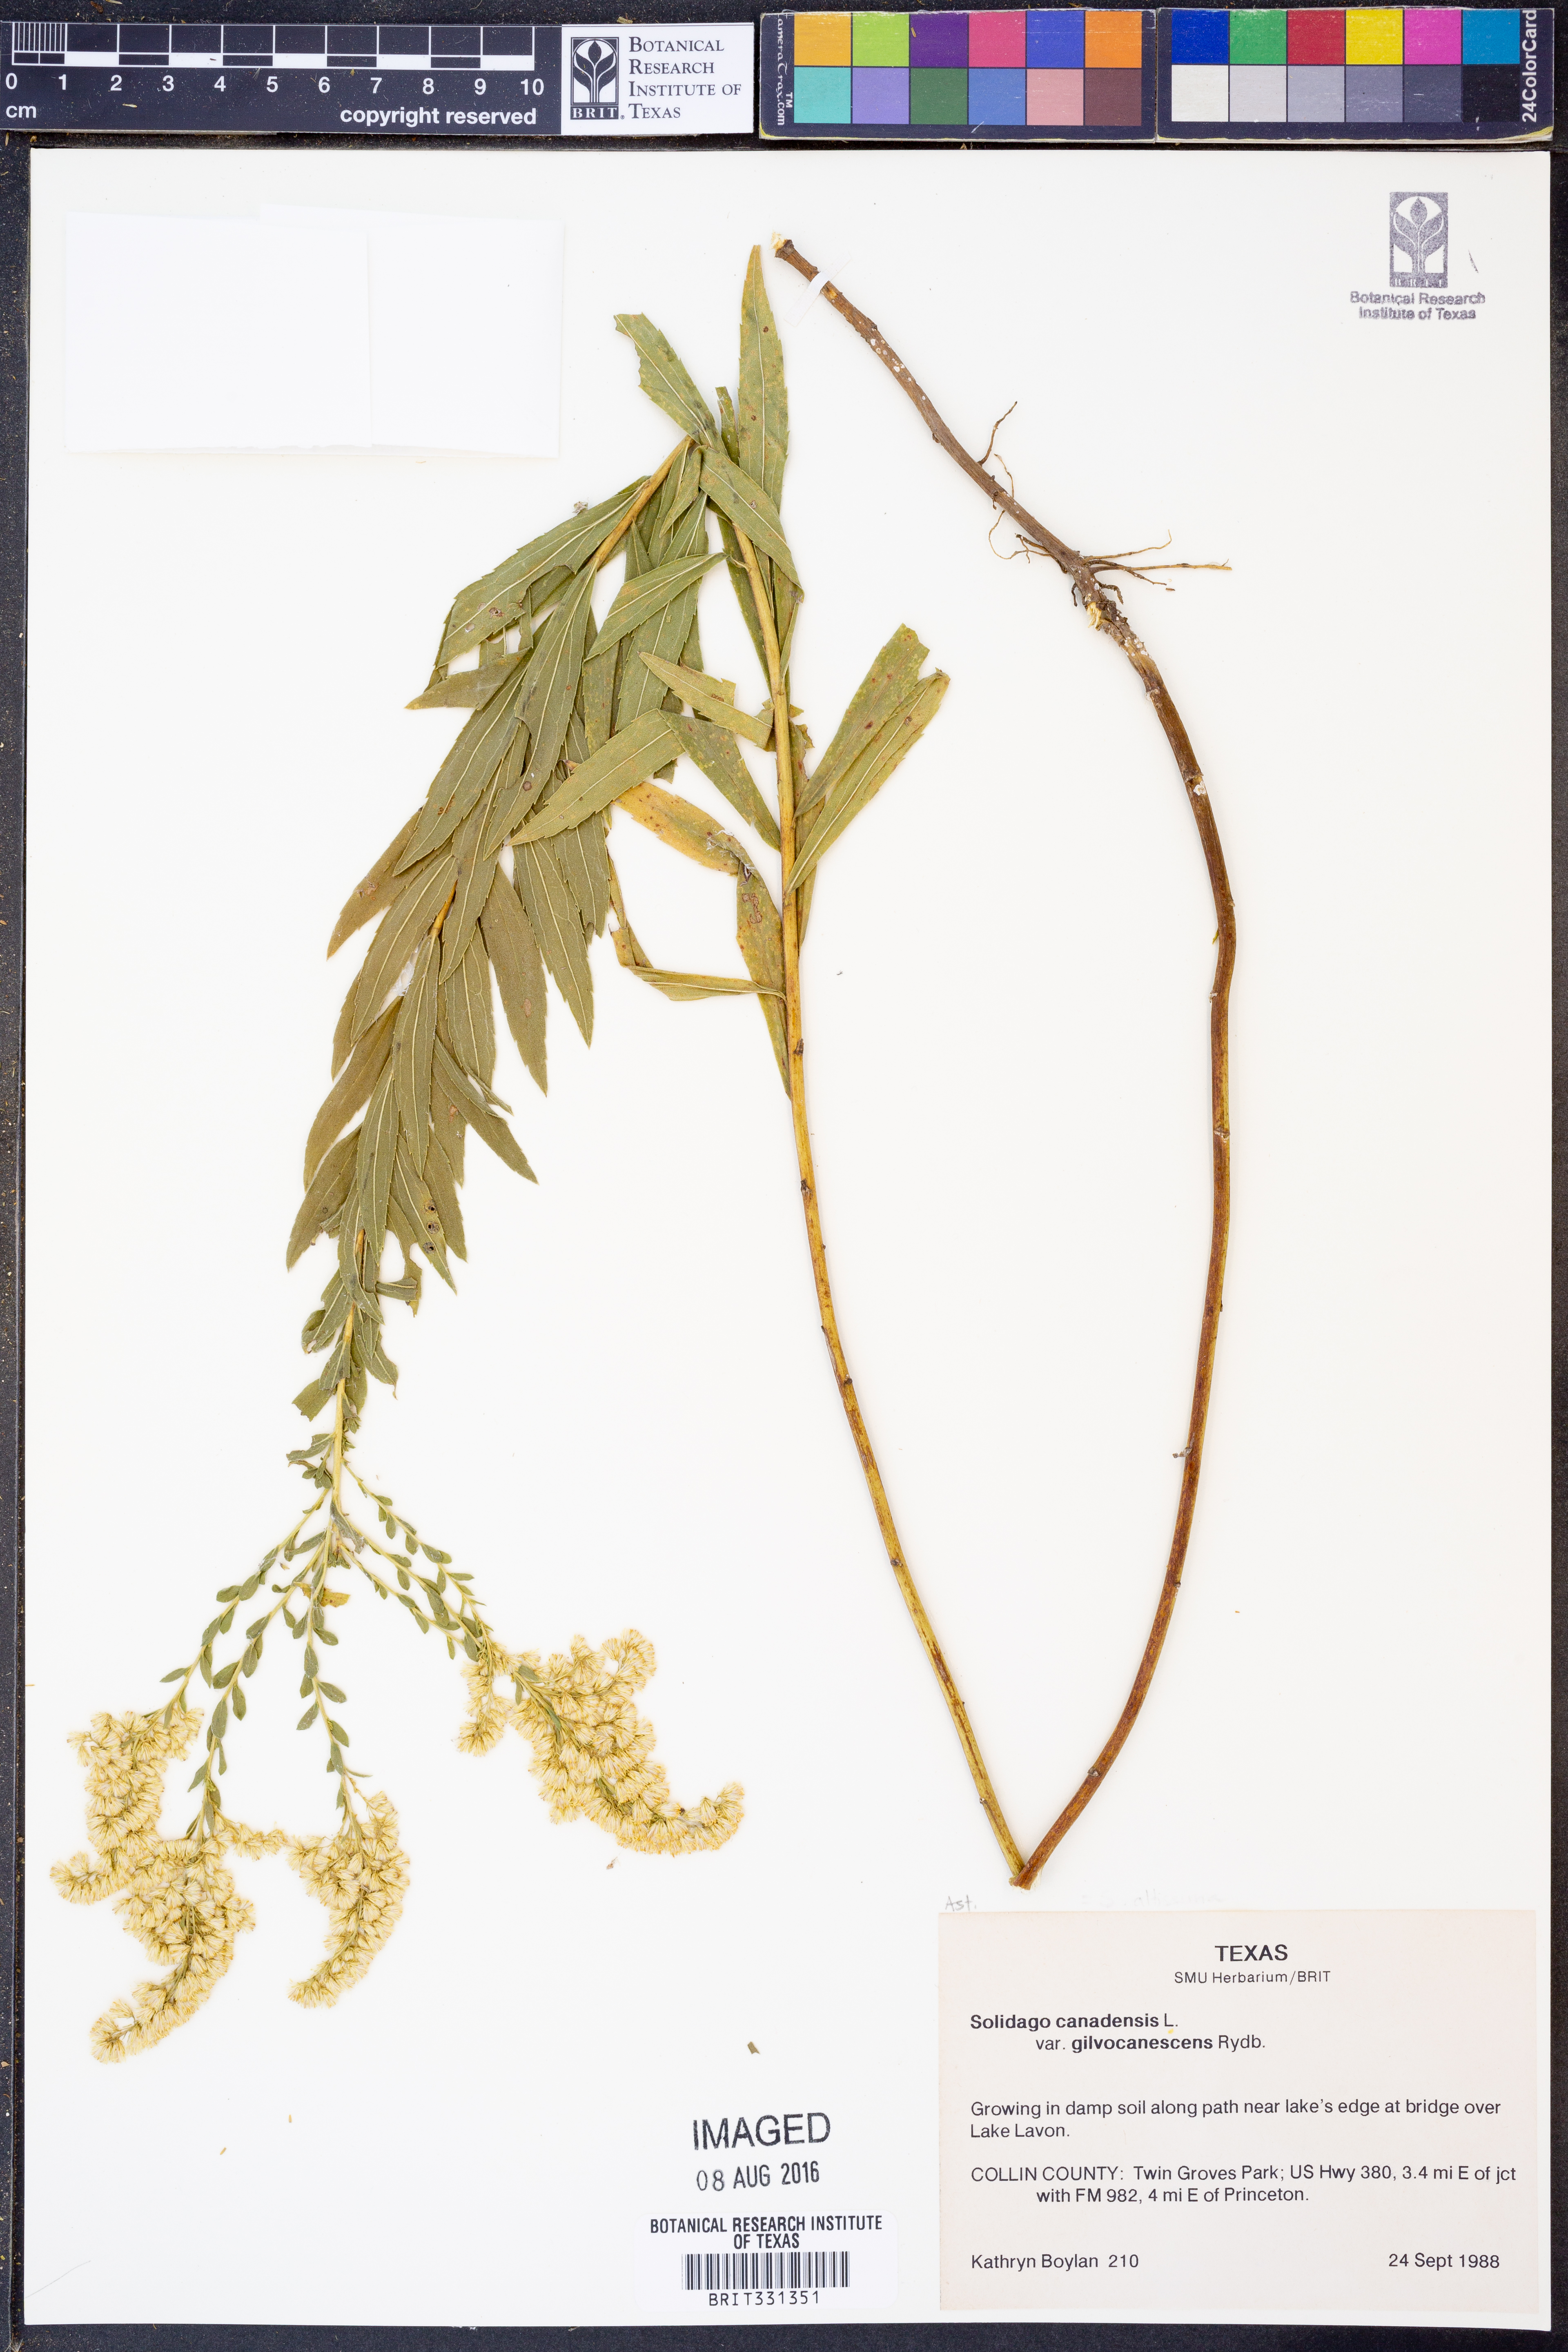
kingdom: Plantae
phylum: Tracheophyta
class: Magnoliopsida
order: Asterales
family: Asteraceae
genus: Solidago
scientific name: Solidago altissima
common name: Late goldenrod
